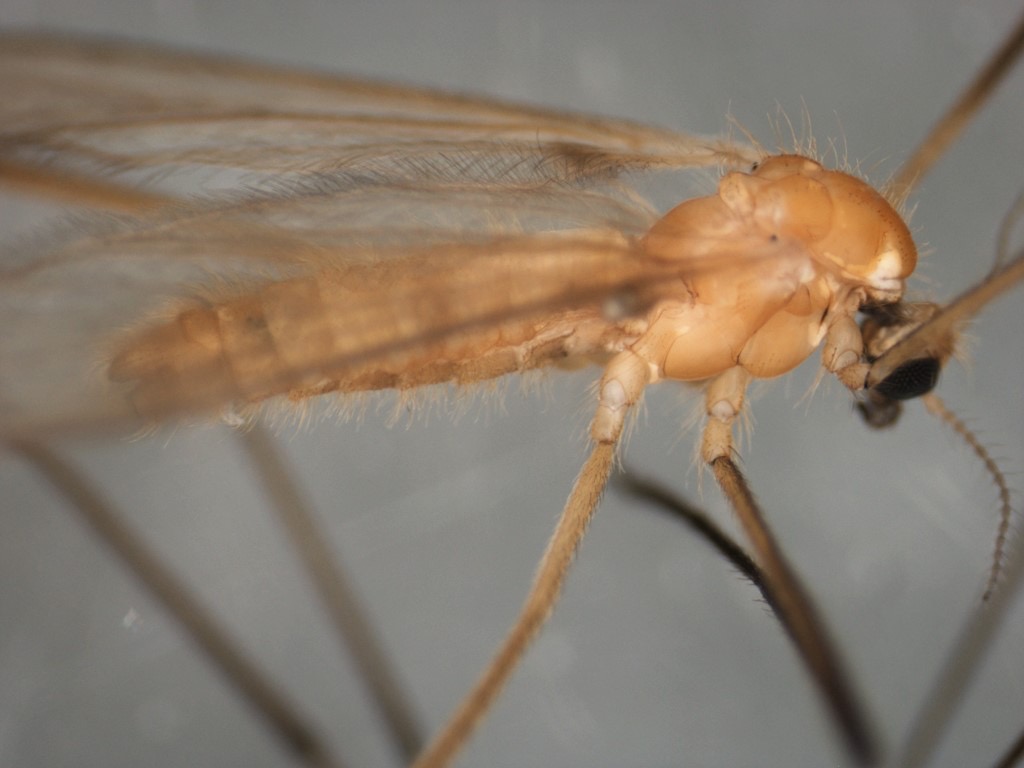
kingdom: Animalia
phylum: Arthropoda
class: Insecta
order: Diptera
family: Limoniidae
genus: Molophilus
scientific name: Molophilus medius
